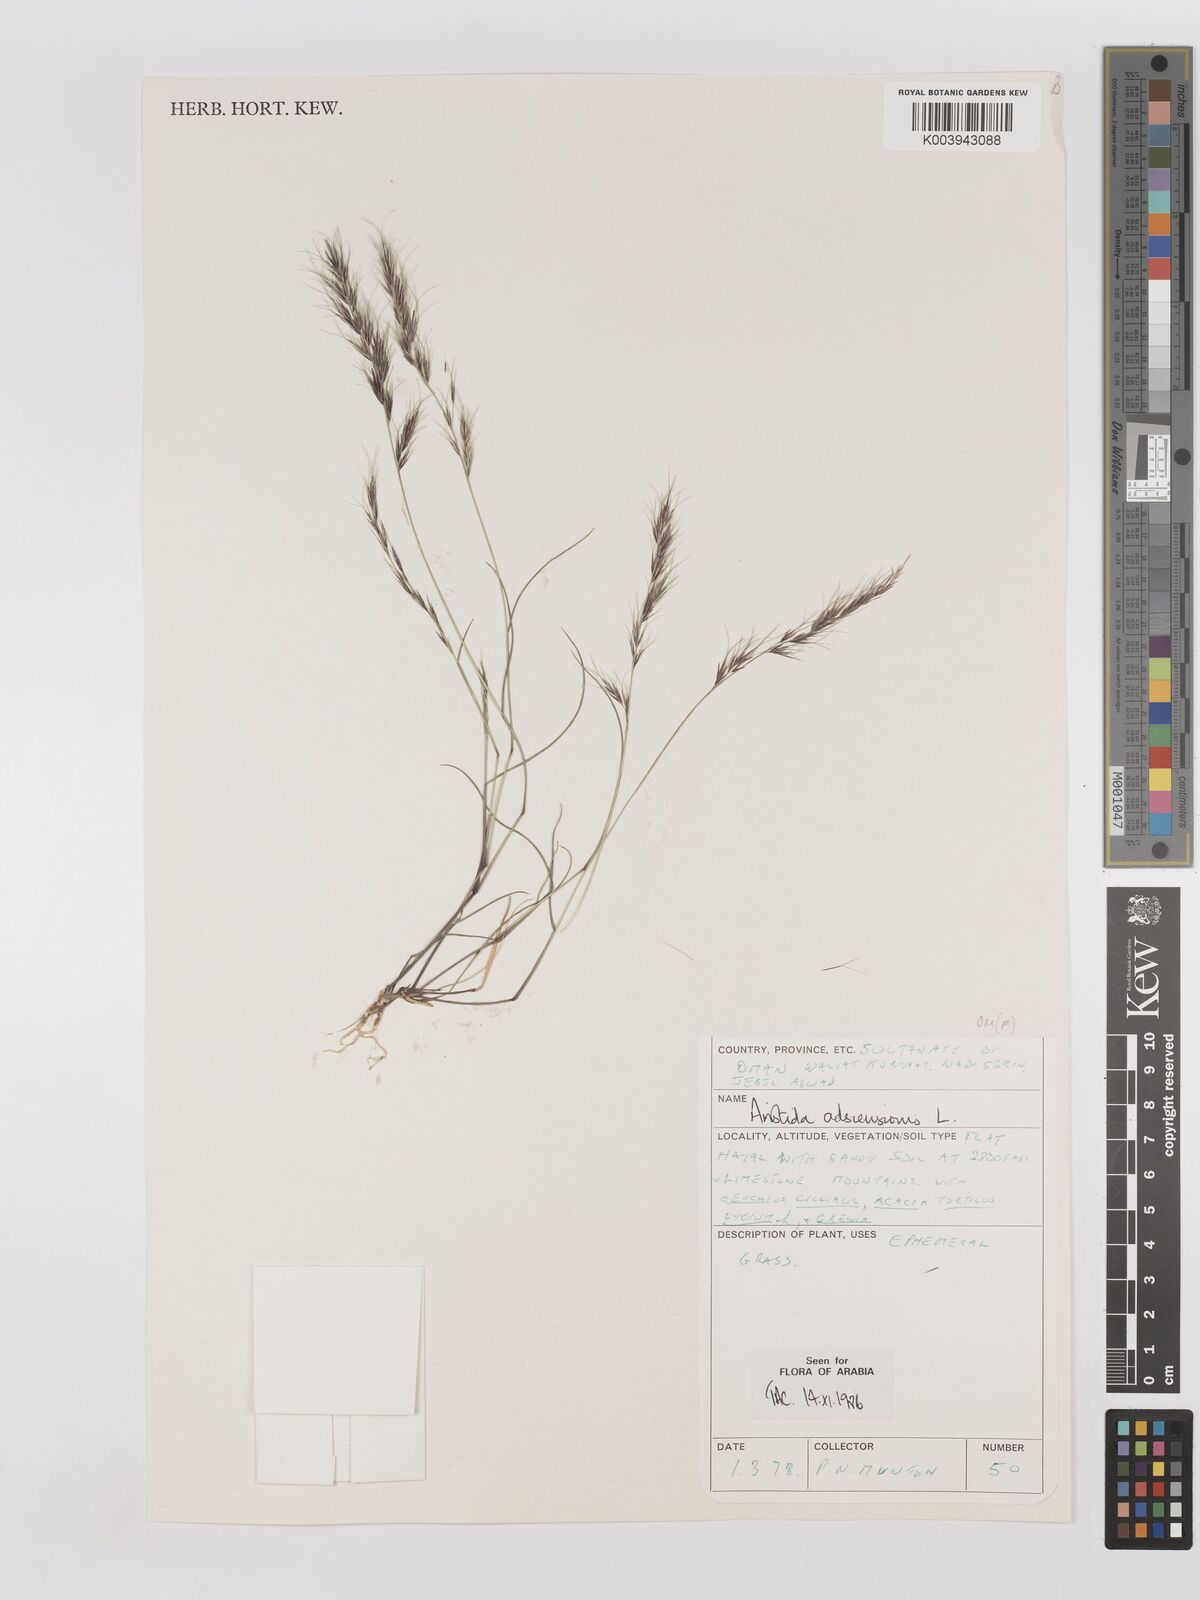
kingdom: Plantae
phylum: Tracheophyta
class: Liliopsida
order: Poales
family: Poaceae
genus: Aristida
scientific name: Aristida adscensionis
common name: Sixweeks threeawn
